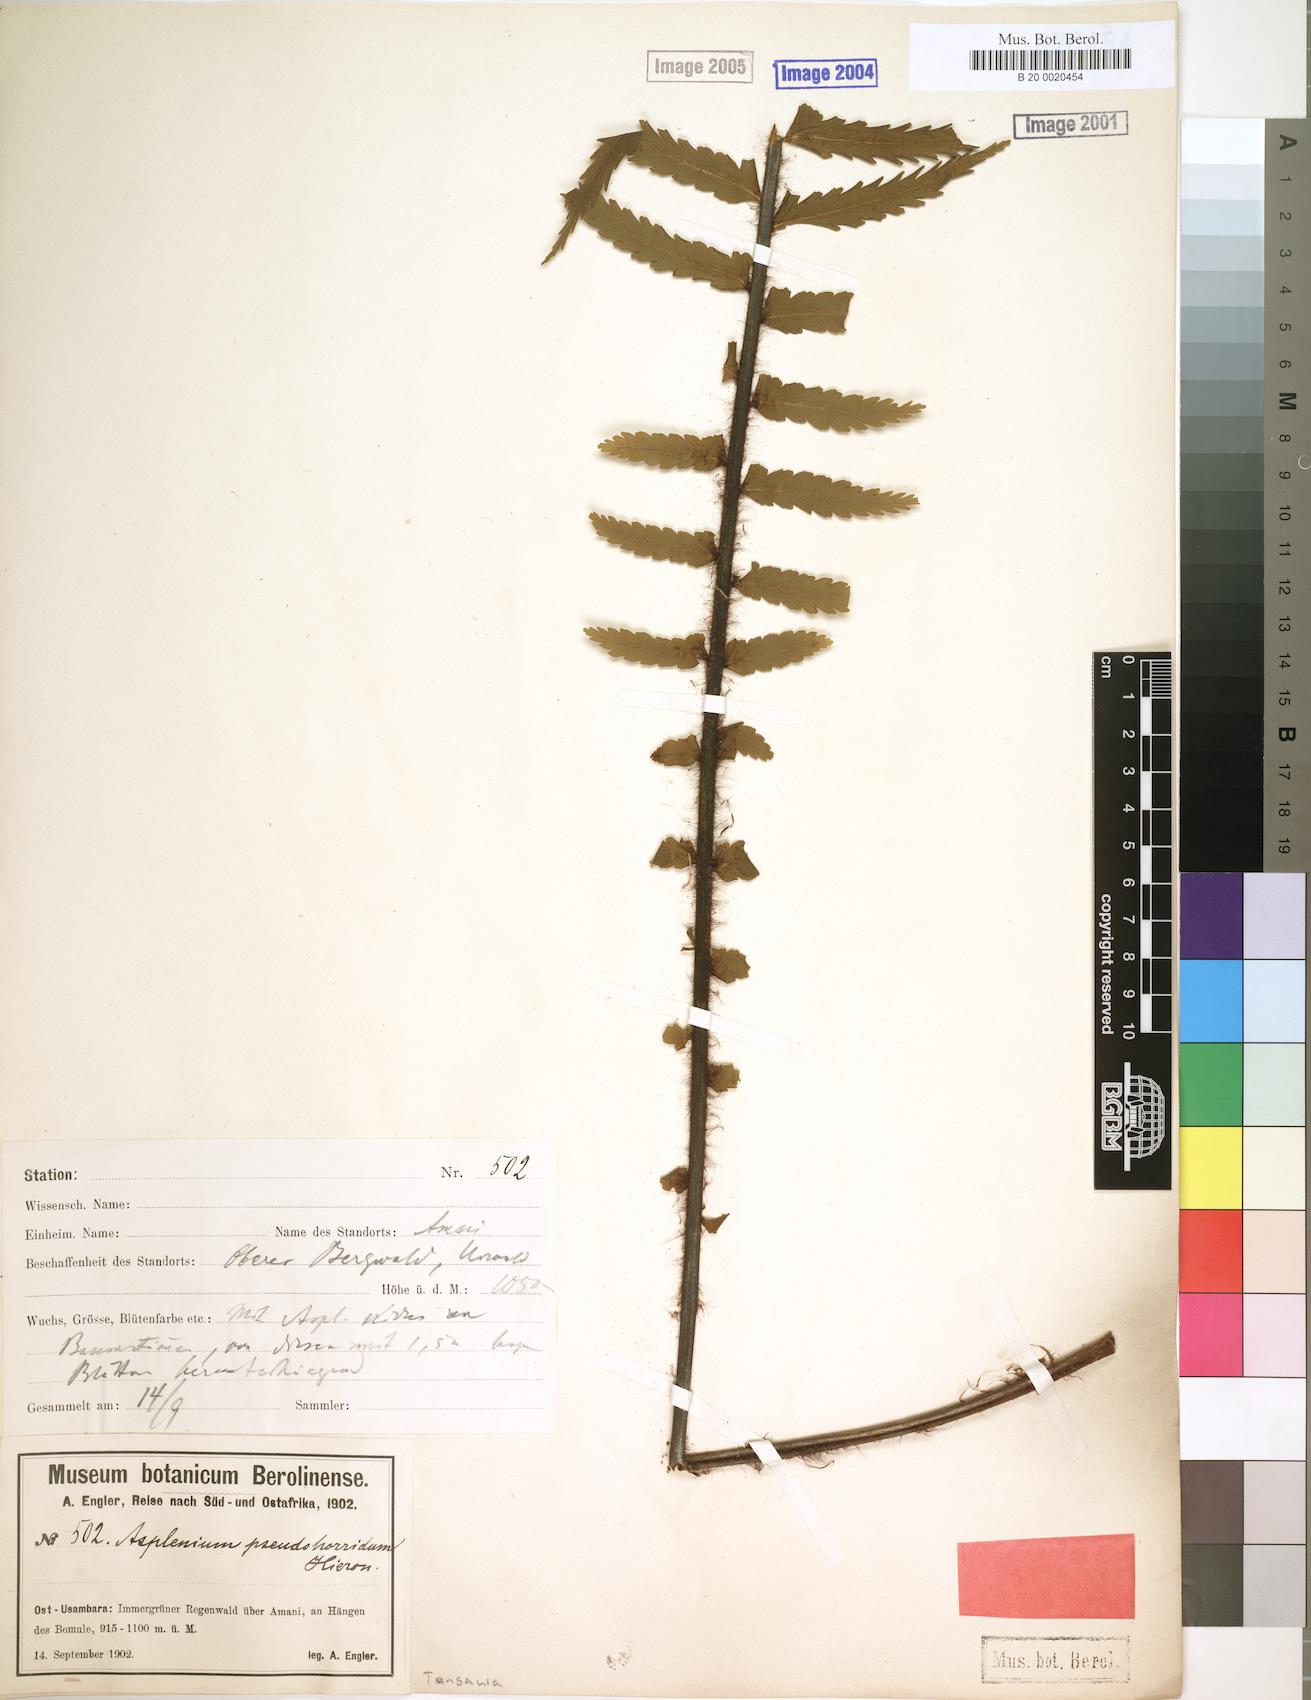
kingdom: Plantae
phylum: Tracheophyta
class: Polypodiopsida
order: Polypodiales
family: Aspleniaceae
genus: Asplenium
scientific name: Asplenium pellucidum
